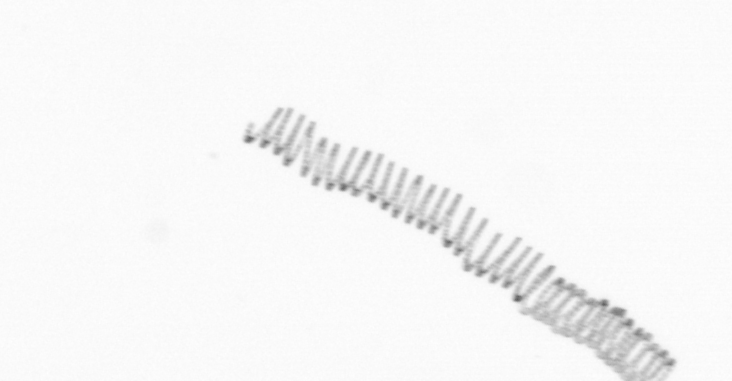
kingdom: Chromista
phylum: Ochrophyta
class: Bacillariophyceae
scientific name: Bacillariophyceae
